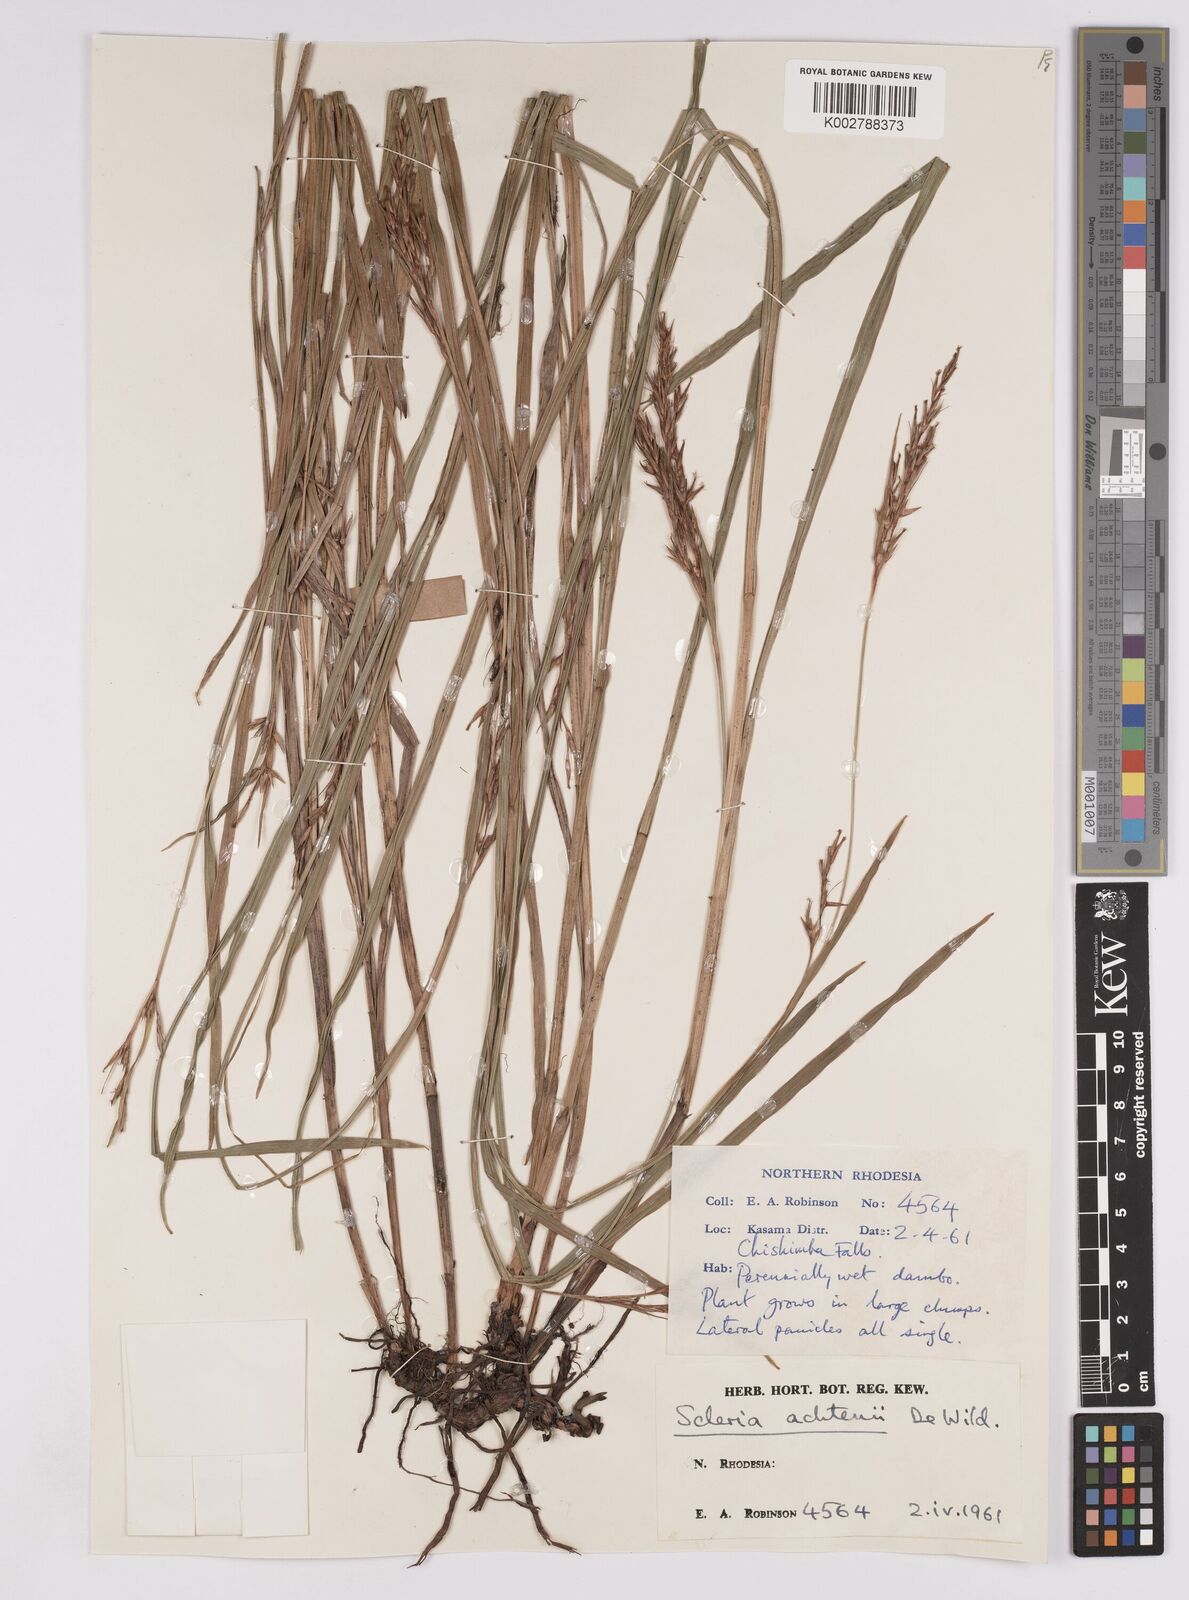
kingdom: Plantae
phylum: Tracheophyta
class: Liliopsida
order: Poales
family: Cyperaceae
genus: Scleria
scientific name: Scleria achtenii
